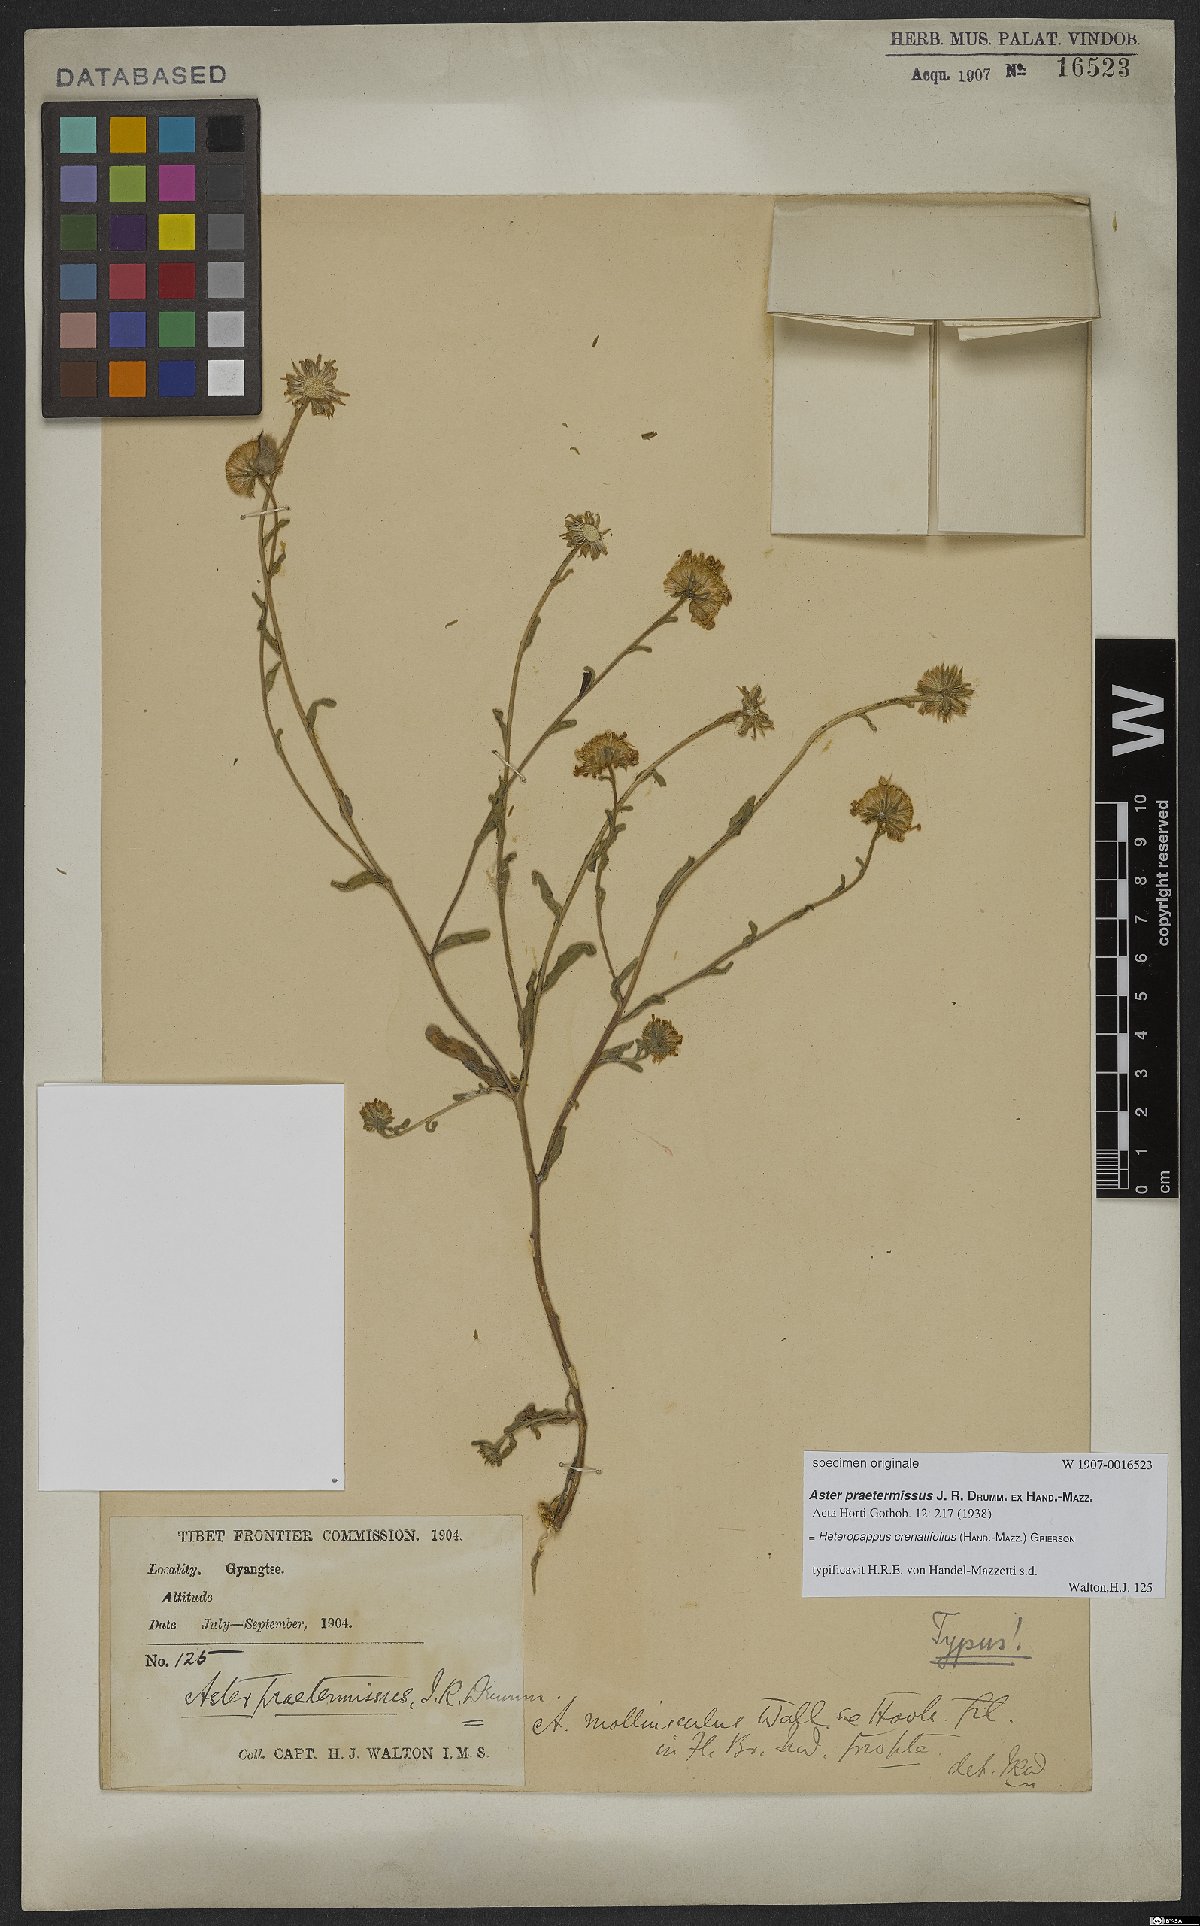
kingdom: Plantae
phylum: Tracheophyta
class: Magnoliopsida
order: Asterales
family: Asteraceae
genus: Heteropappus
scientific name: Heteropappus crenatifolius
